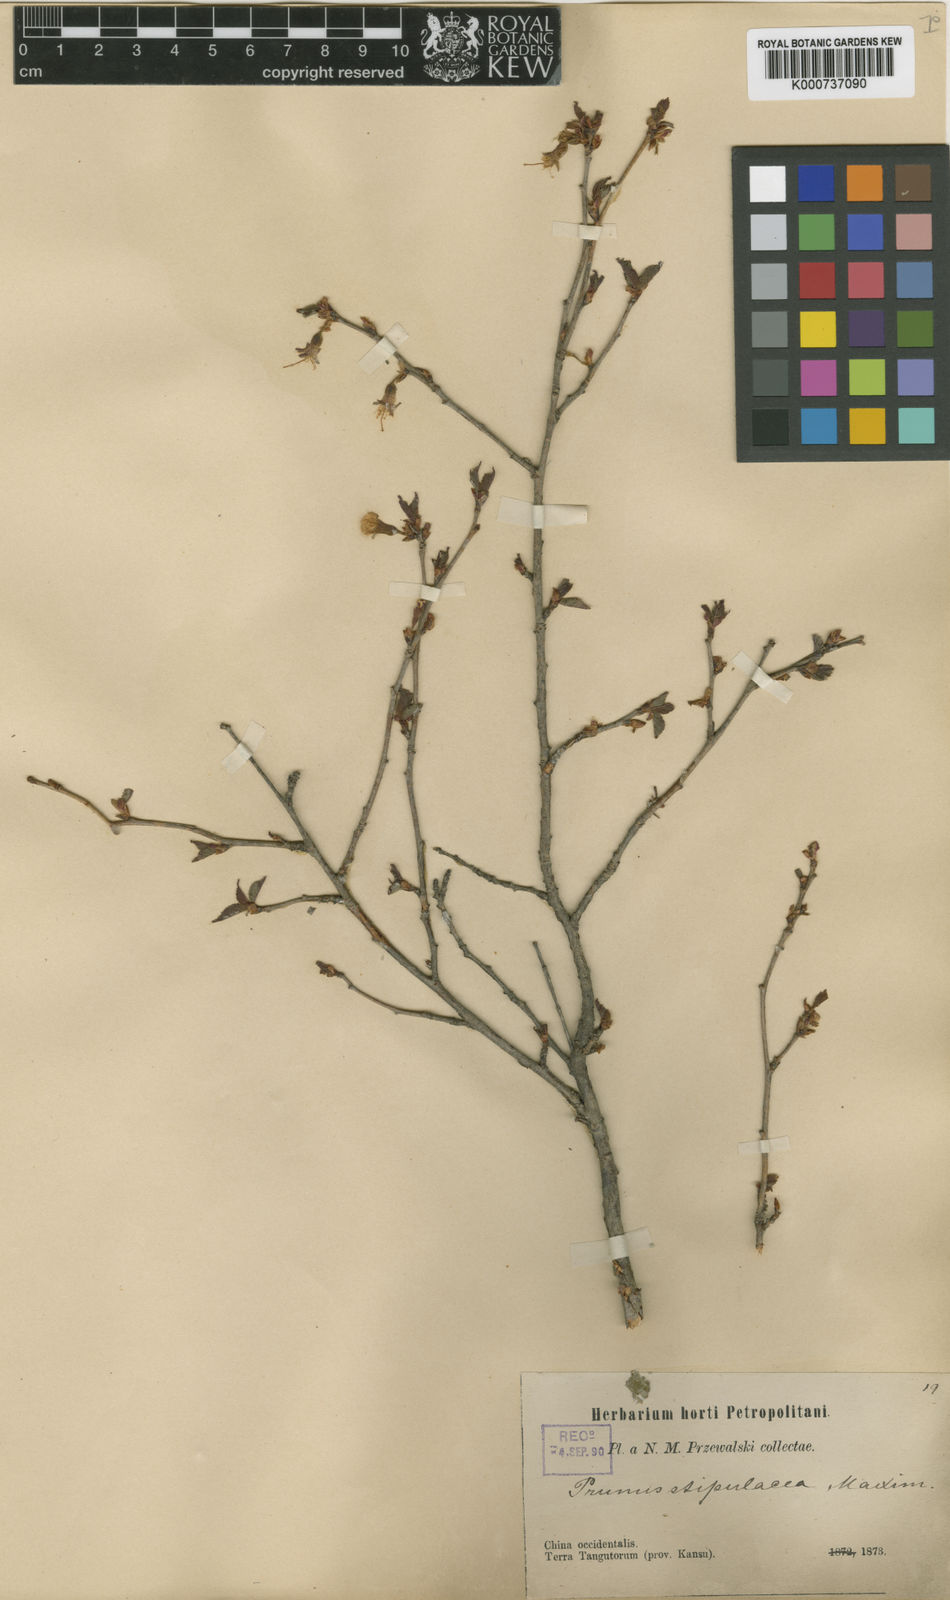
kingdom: Plantae
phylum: Tracheophyta
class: Magnoliopsida
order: Rosales
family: Rosaceae
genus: Prunus
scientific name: Prunus stipulacea
